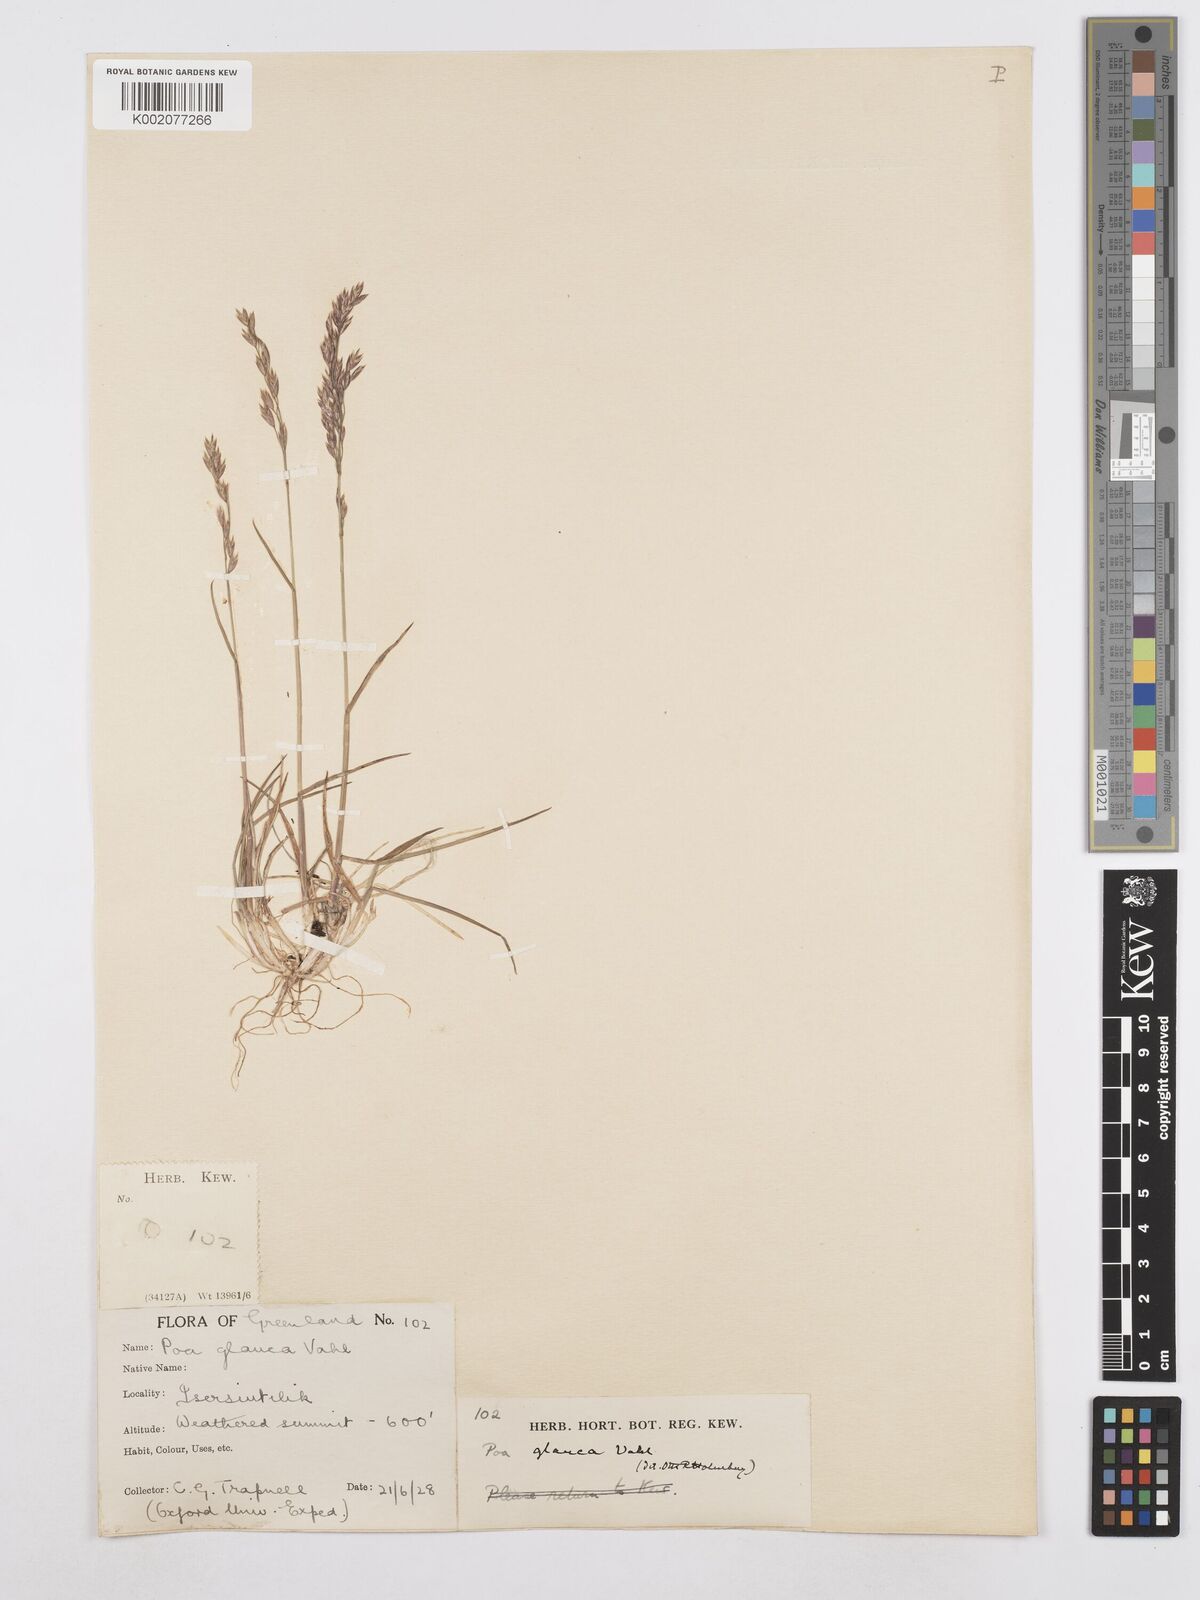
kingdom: Plantae
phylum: Tracheophyta
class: Liliopsida
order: Poales
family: Poaceae
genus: Poa
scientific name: Poa glauca
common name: Glaucous bluegrass
